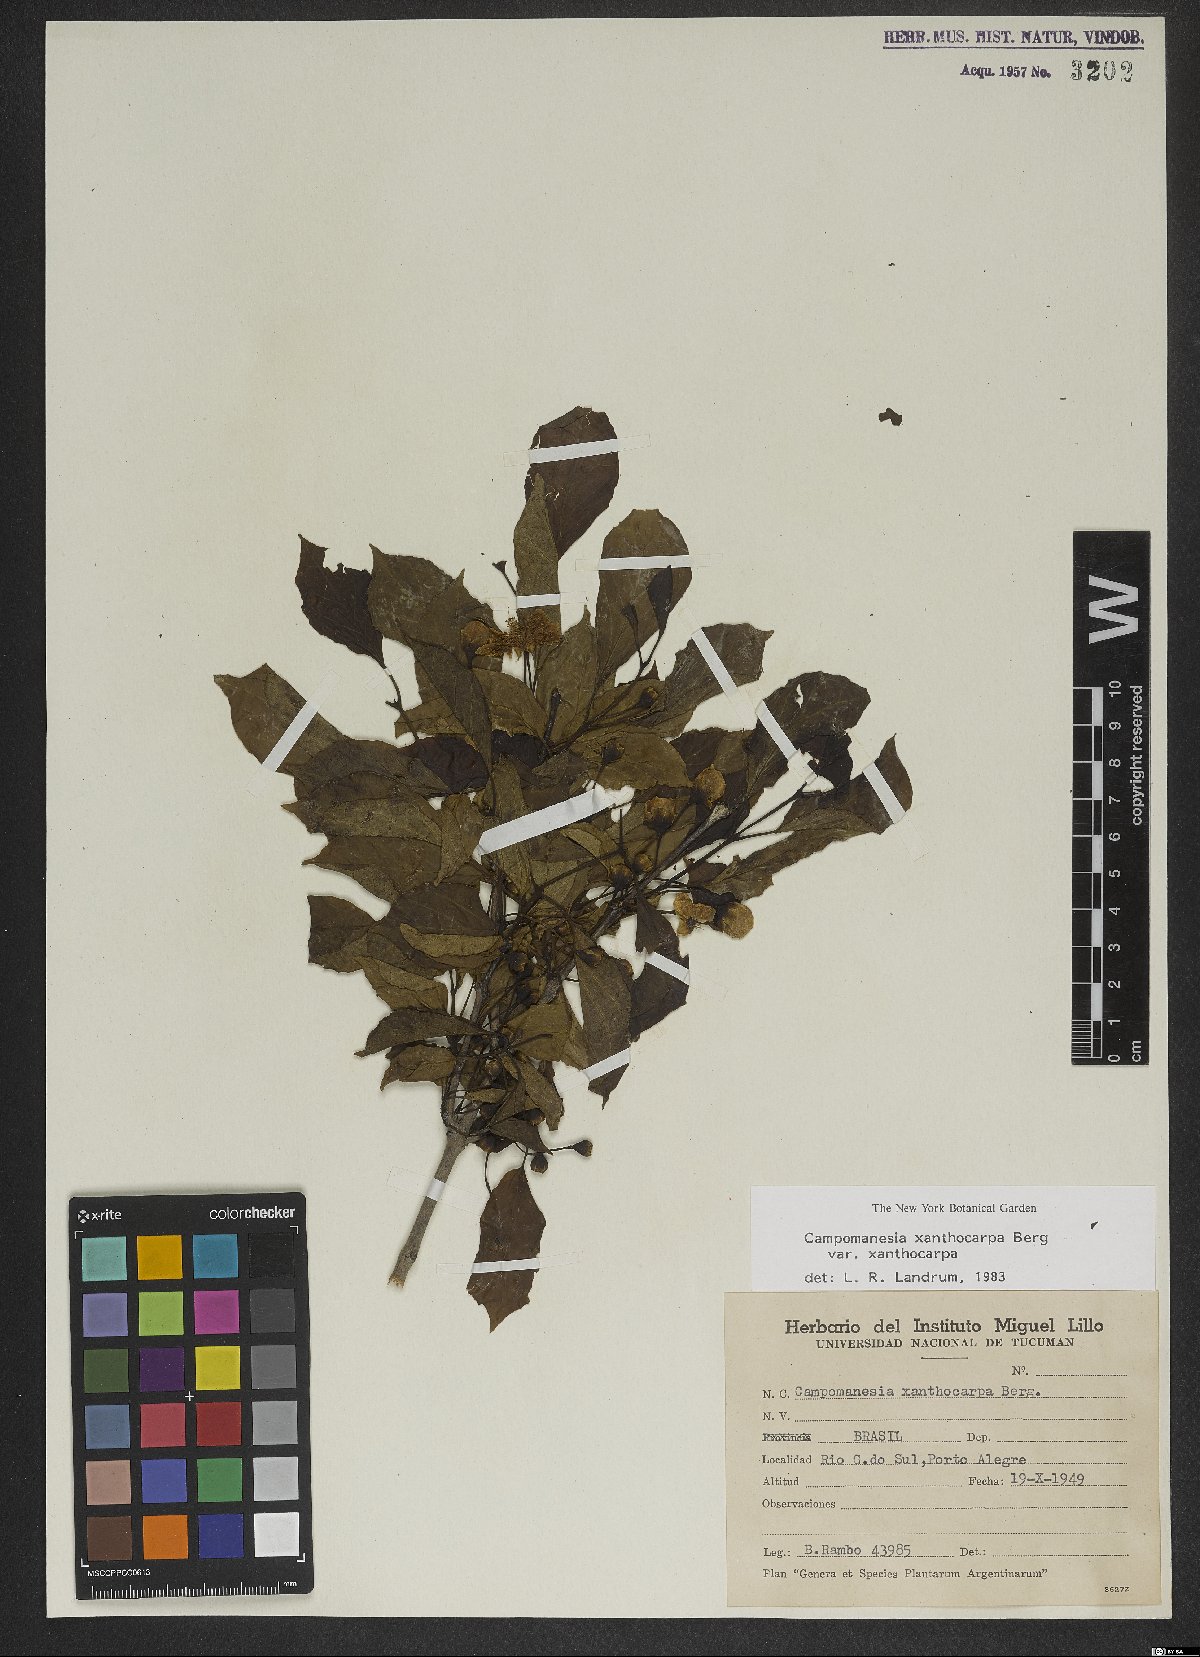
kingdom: Plantae
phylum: Tracheophyta
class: Magnoliopsida
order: Myrtales
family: Myrtaceae
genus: Campomanesia
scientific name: Campomanesia xanthocarpa
